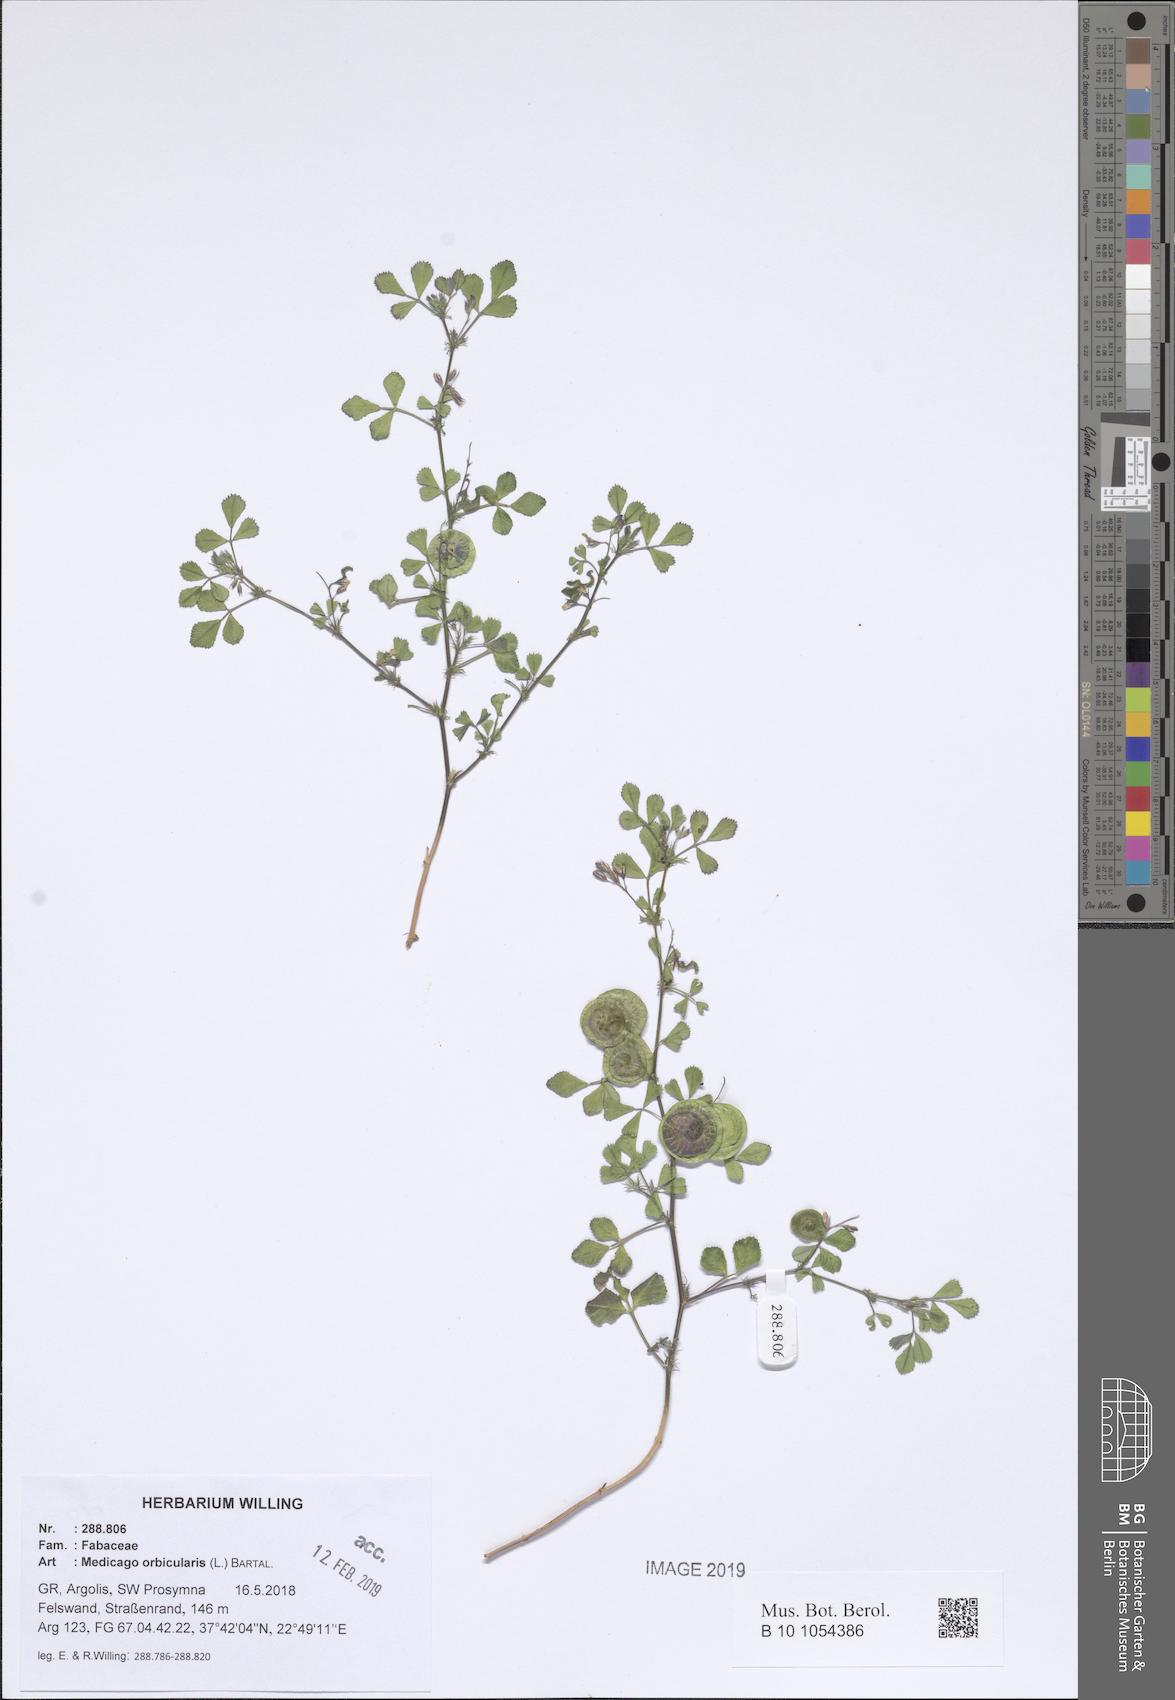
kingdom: Plantae
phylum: Tracheophyta
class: Magnoliopsida
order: Fabales
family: Fabaceae
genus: Medicago
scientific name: Medicago orbicularis
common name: Button medick
